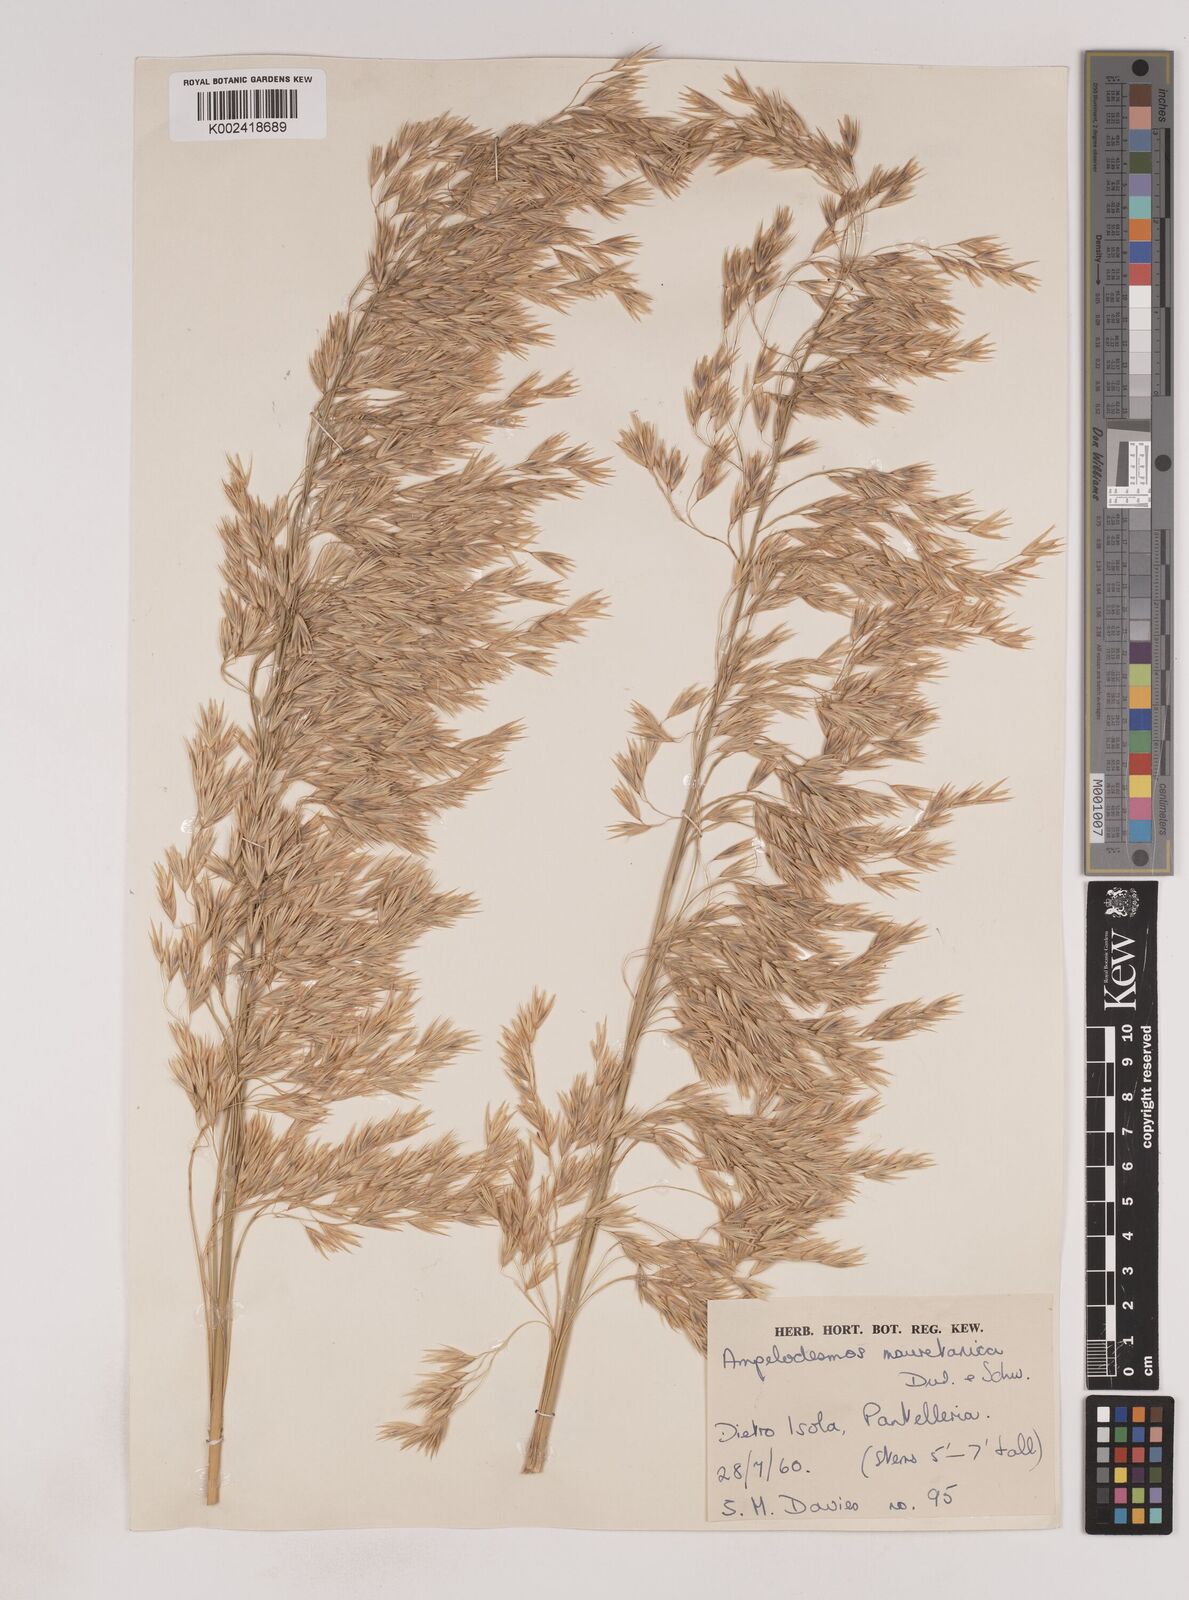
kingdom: Plantae
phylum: Tracheophyta
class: Liliopsida
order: Poales
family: Poaceae
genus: Ampelodesmos
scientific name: Ampelodesmos mauritanicus
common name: Mauritanian grass
